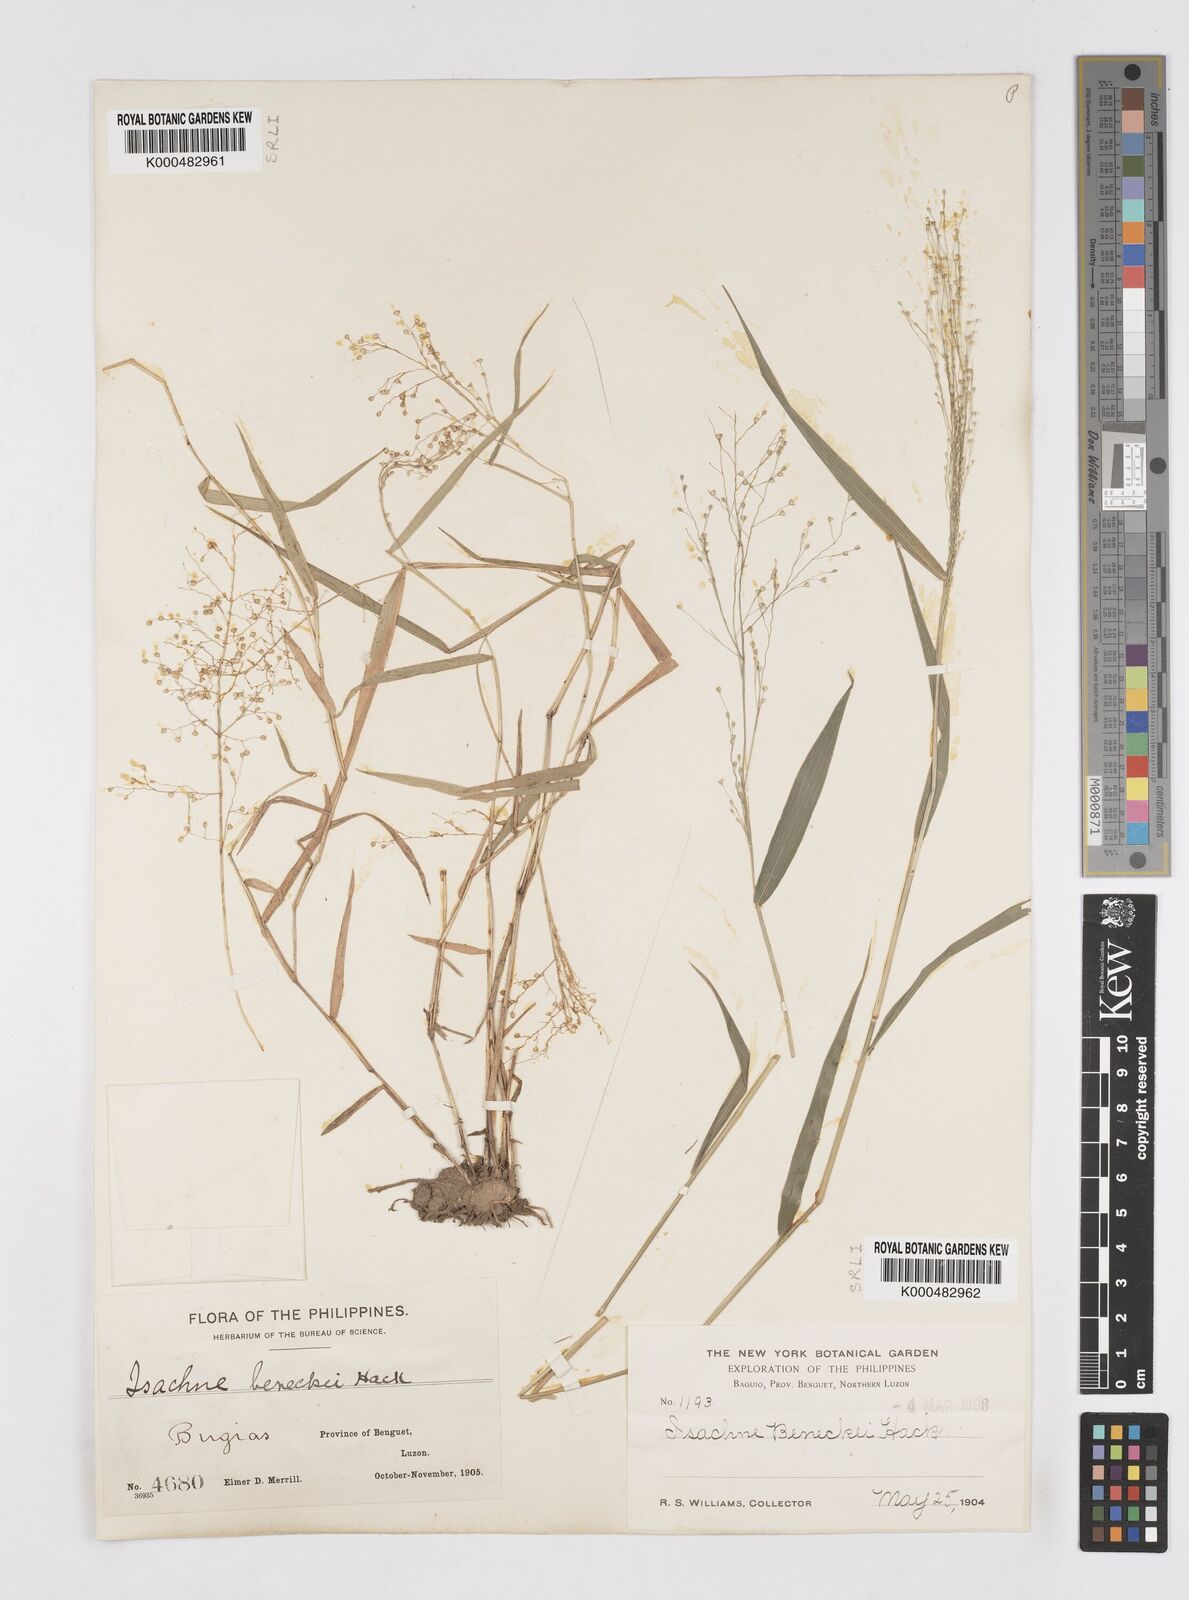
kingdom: Plantae
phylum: Tracheophyta
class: Liliopsida
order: Poales
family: Poaceae
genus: Isachne
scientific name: Isachne clarkei
